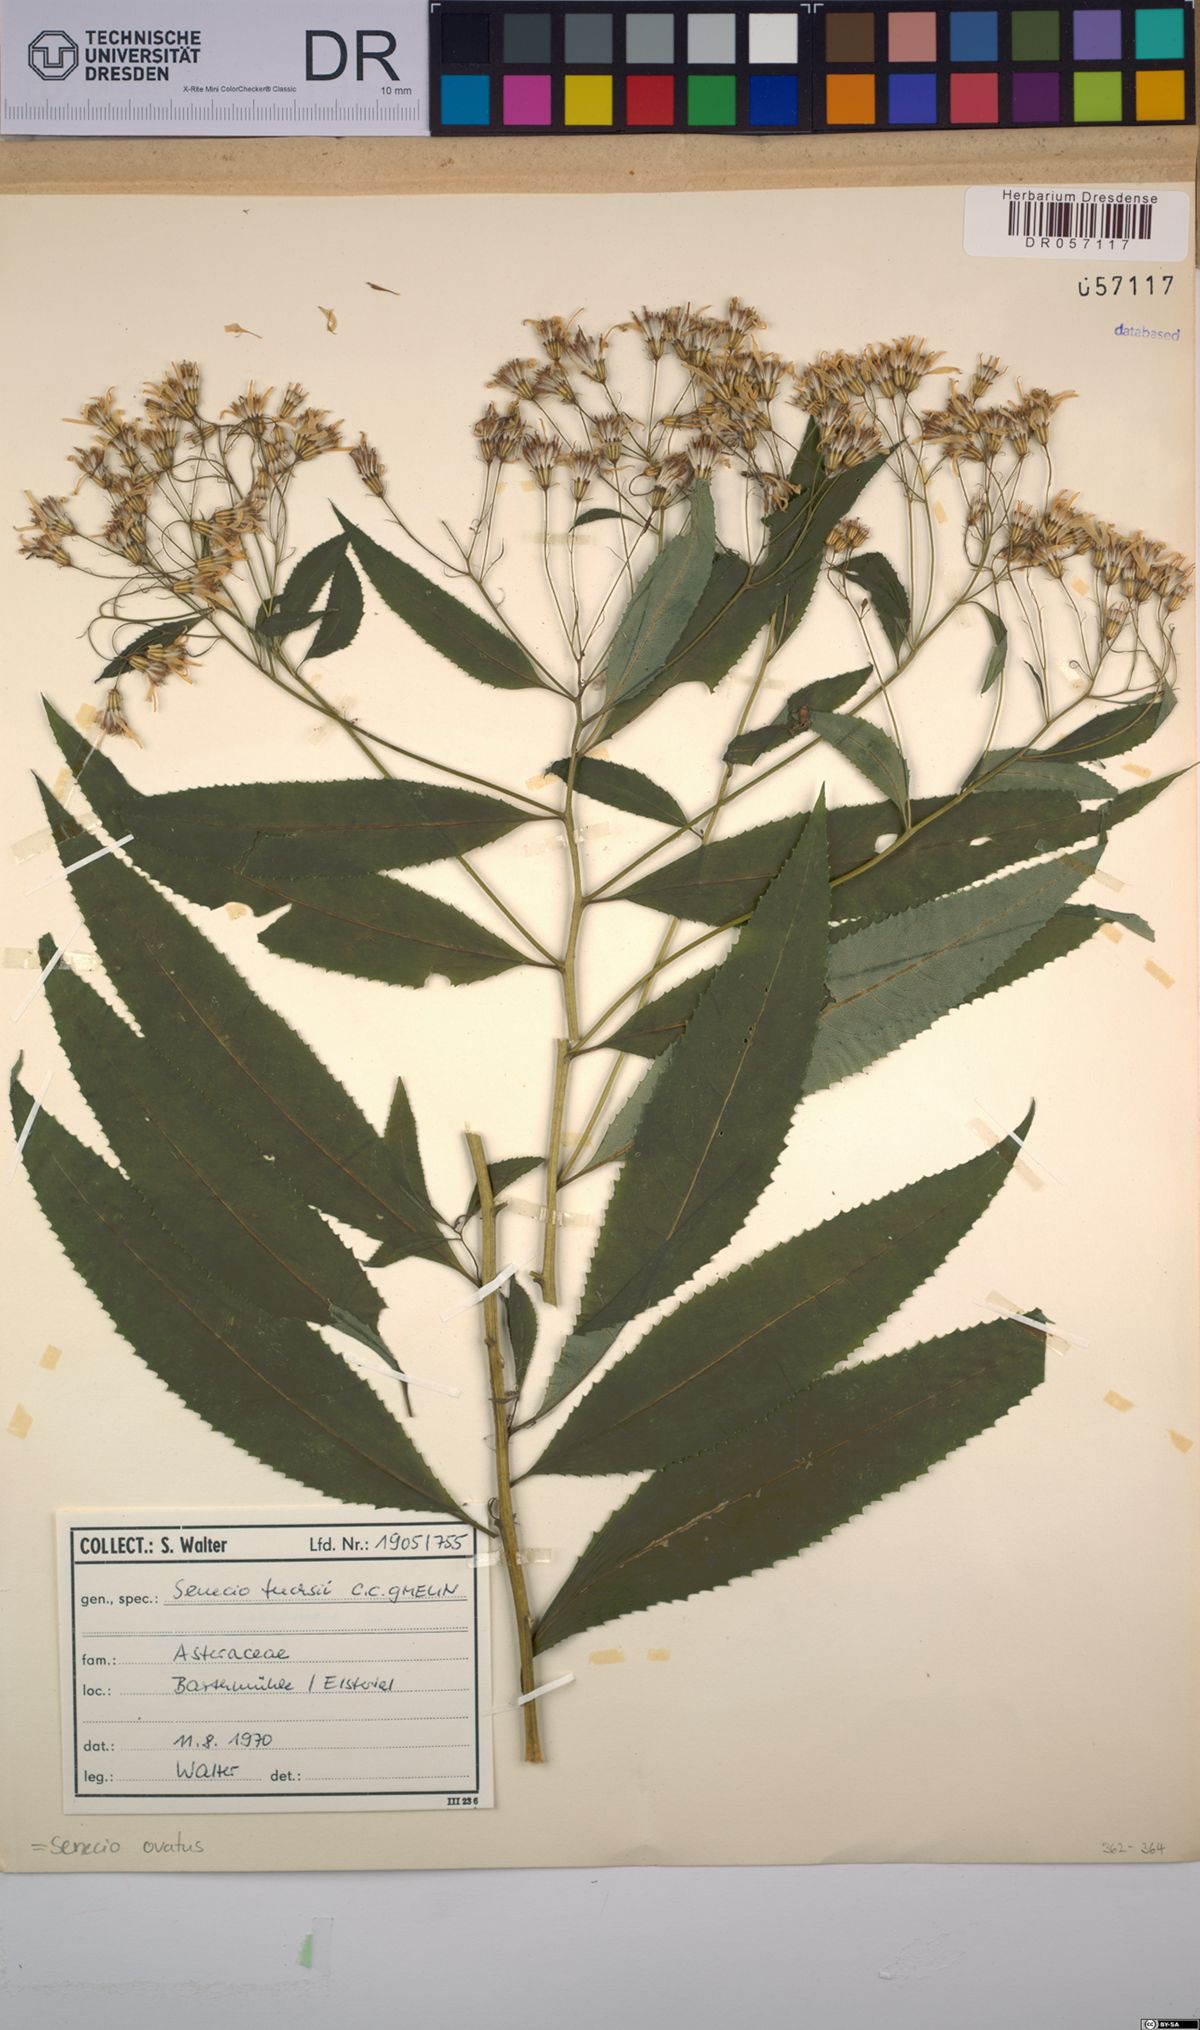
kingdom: Plantae
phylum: Tracheophyta
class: Magnoliopsida
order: Asterales
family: Asteraceae
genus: Senecio
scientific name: Senecio ovatus
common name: Wood ragwort
